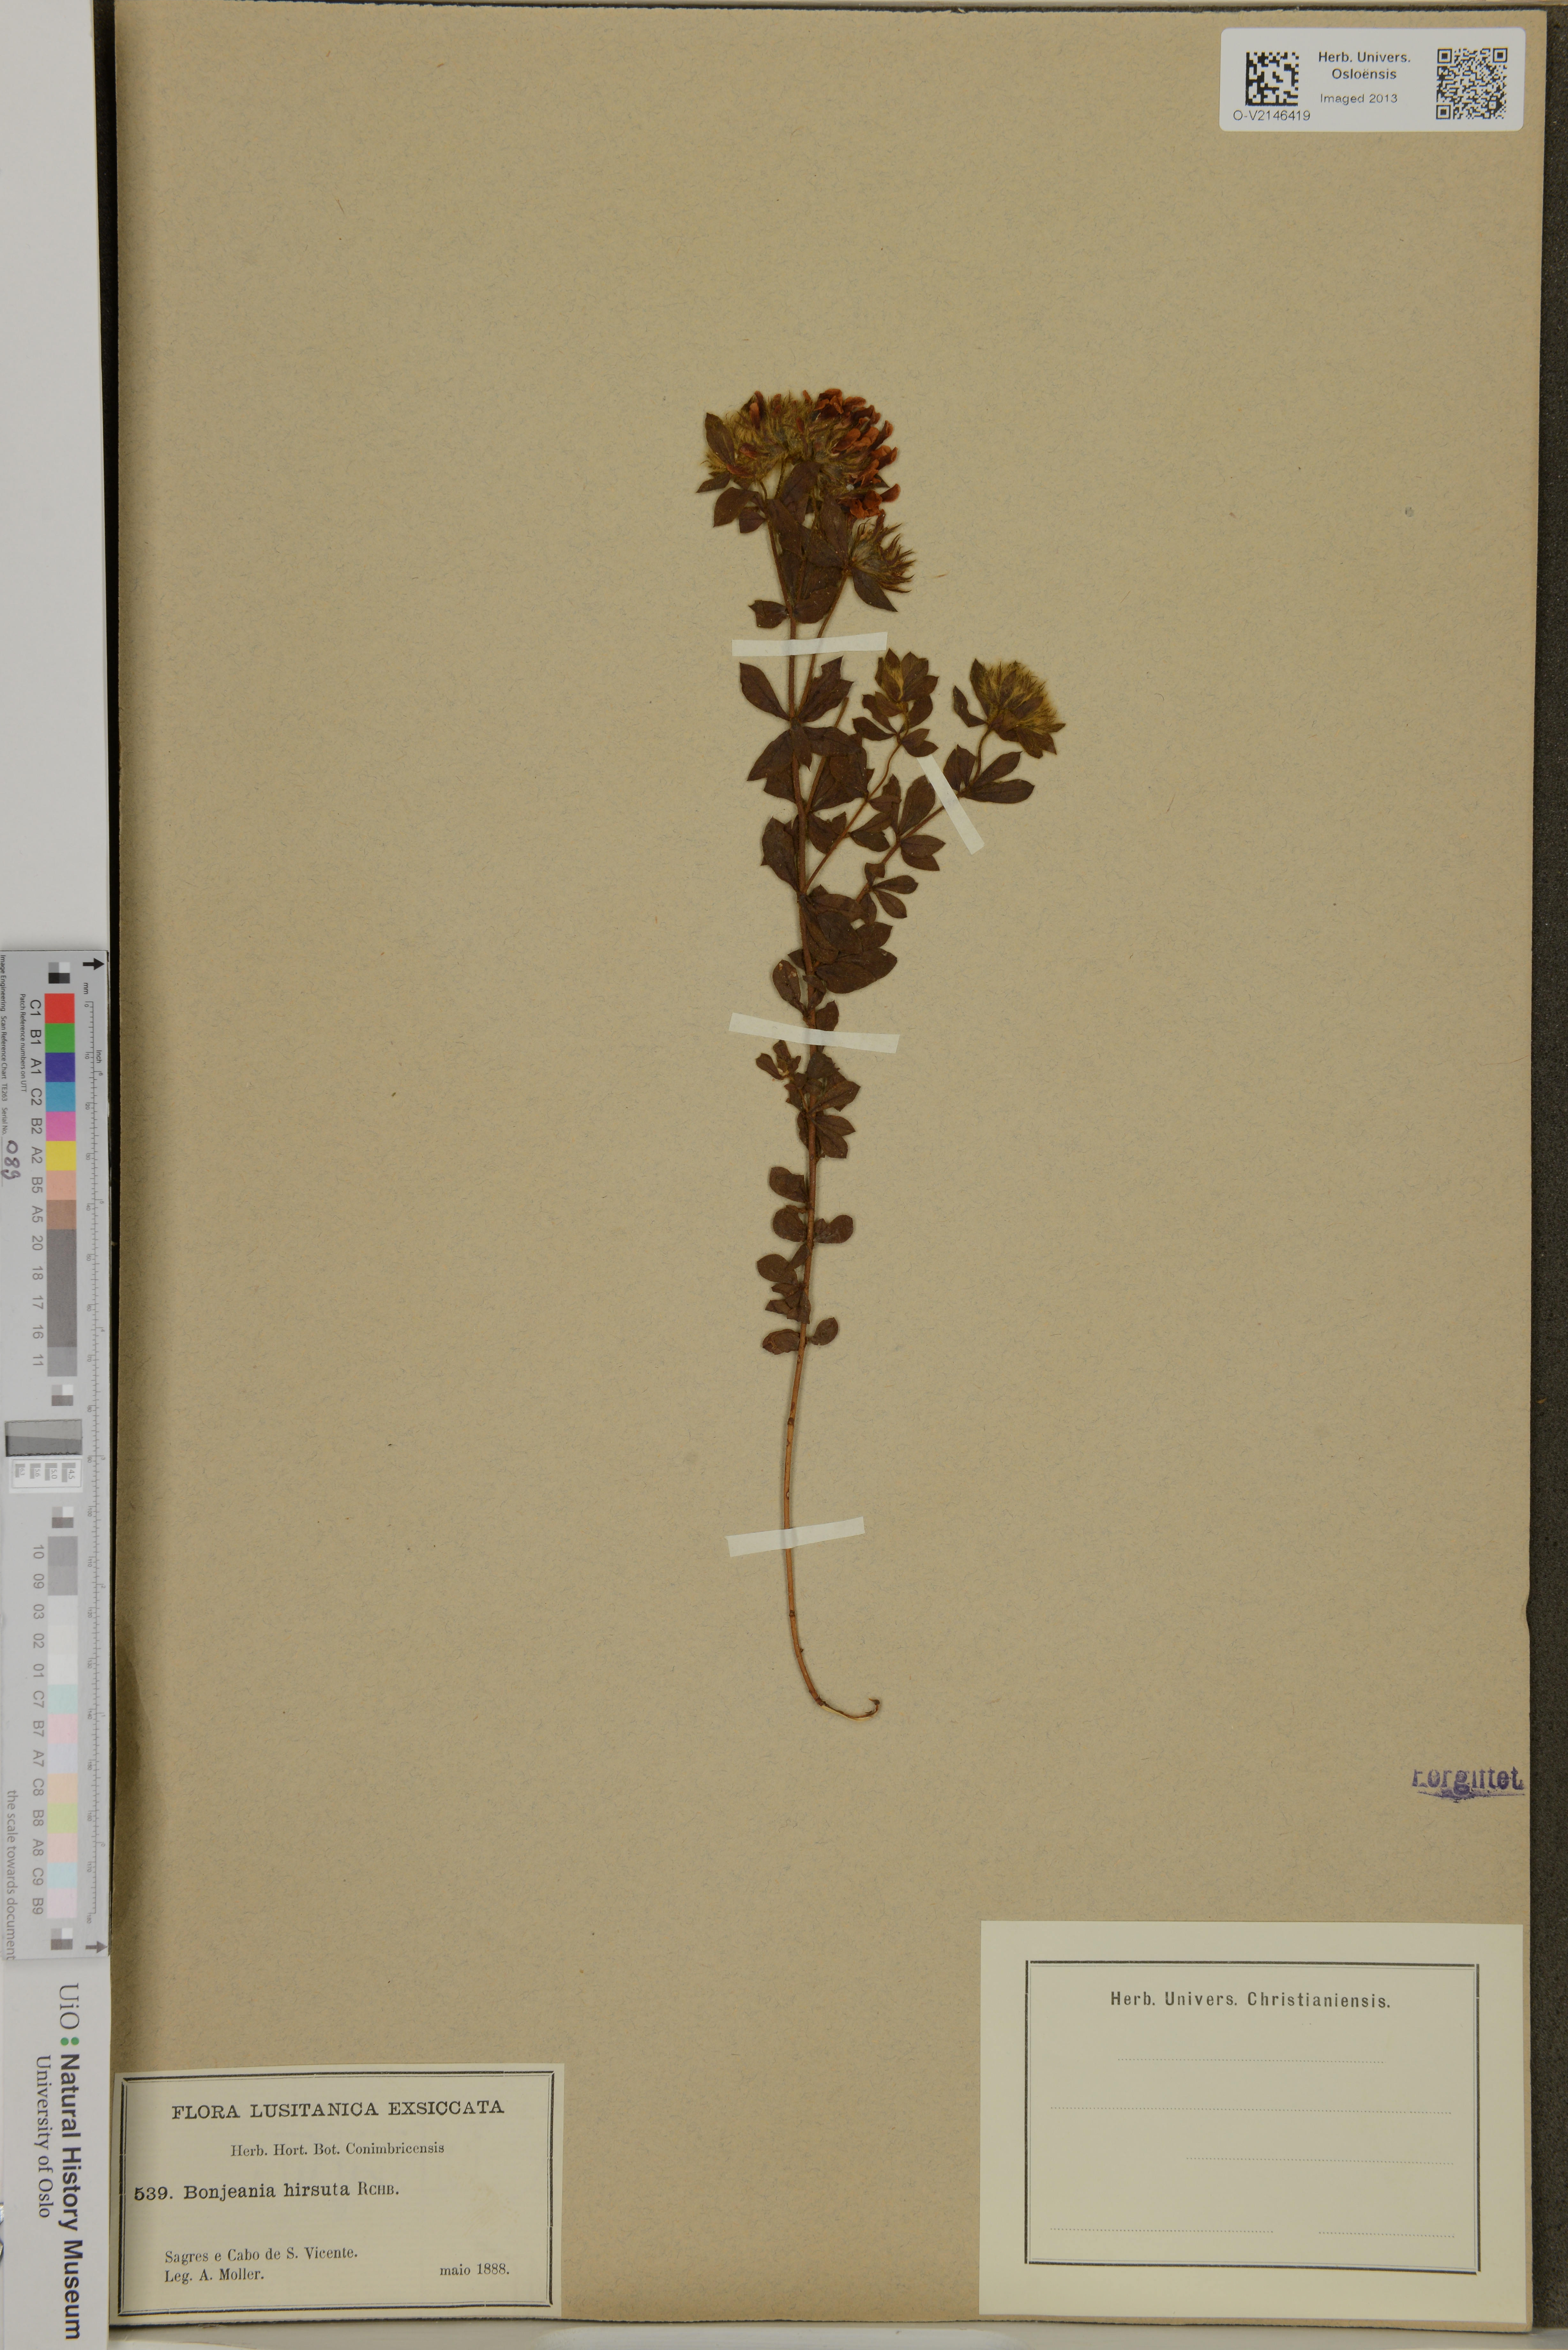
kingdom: Plantae
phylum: Tracheophyta
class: Magnoliopsida
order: Fabales
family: Fabaceae
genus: Lotus
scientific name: Lotus hirsutus
